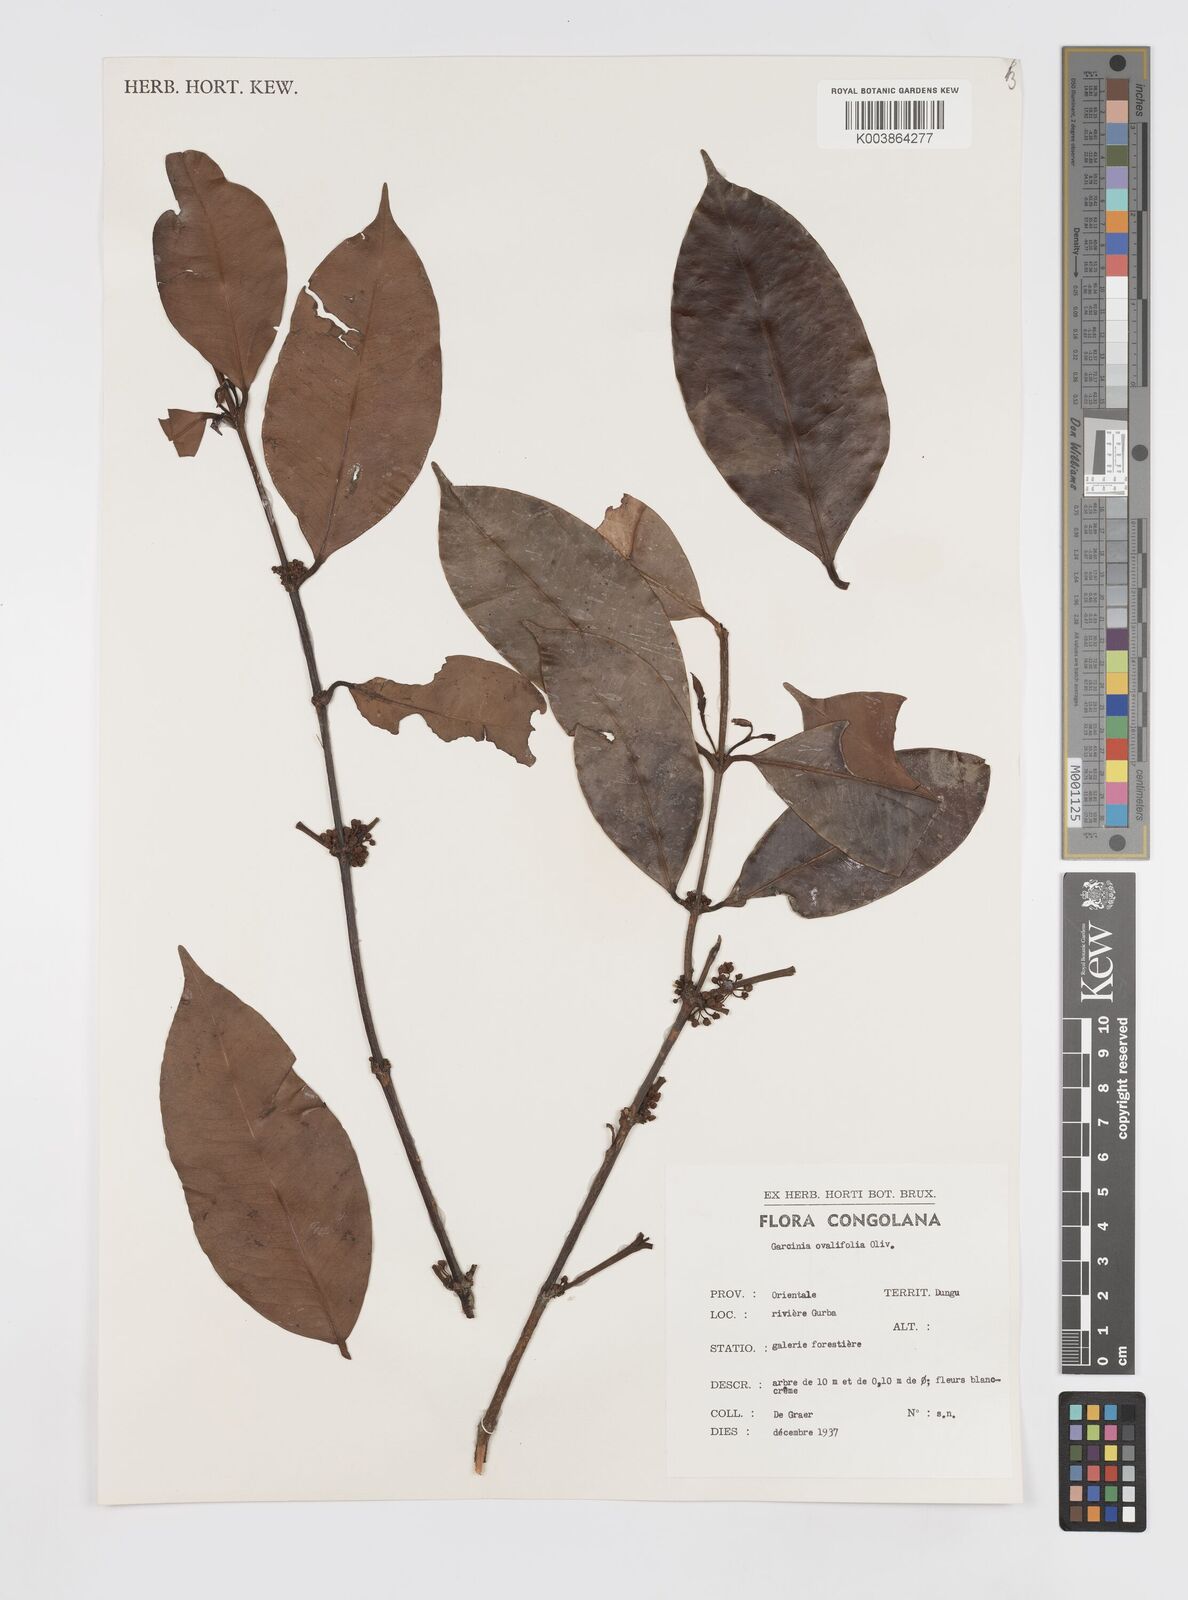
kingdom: Plantae
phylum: Tracheophyta
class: Magnoliopsida
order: Malpighiales
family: Clusiaceae
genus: Garcinia
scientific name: Garcinia ovalifolia
